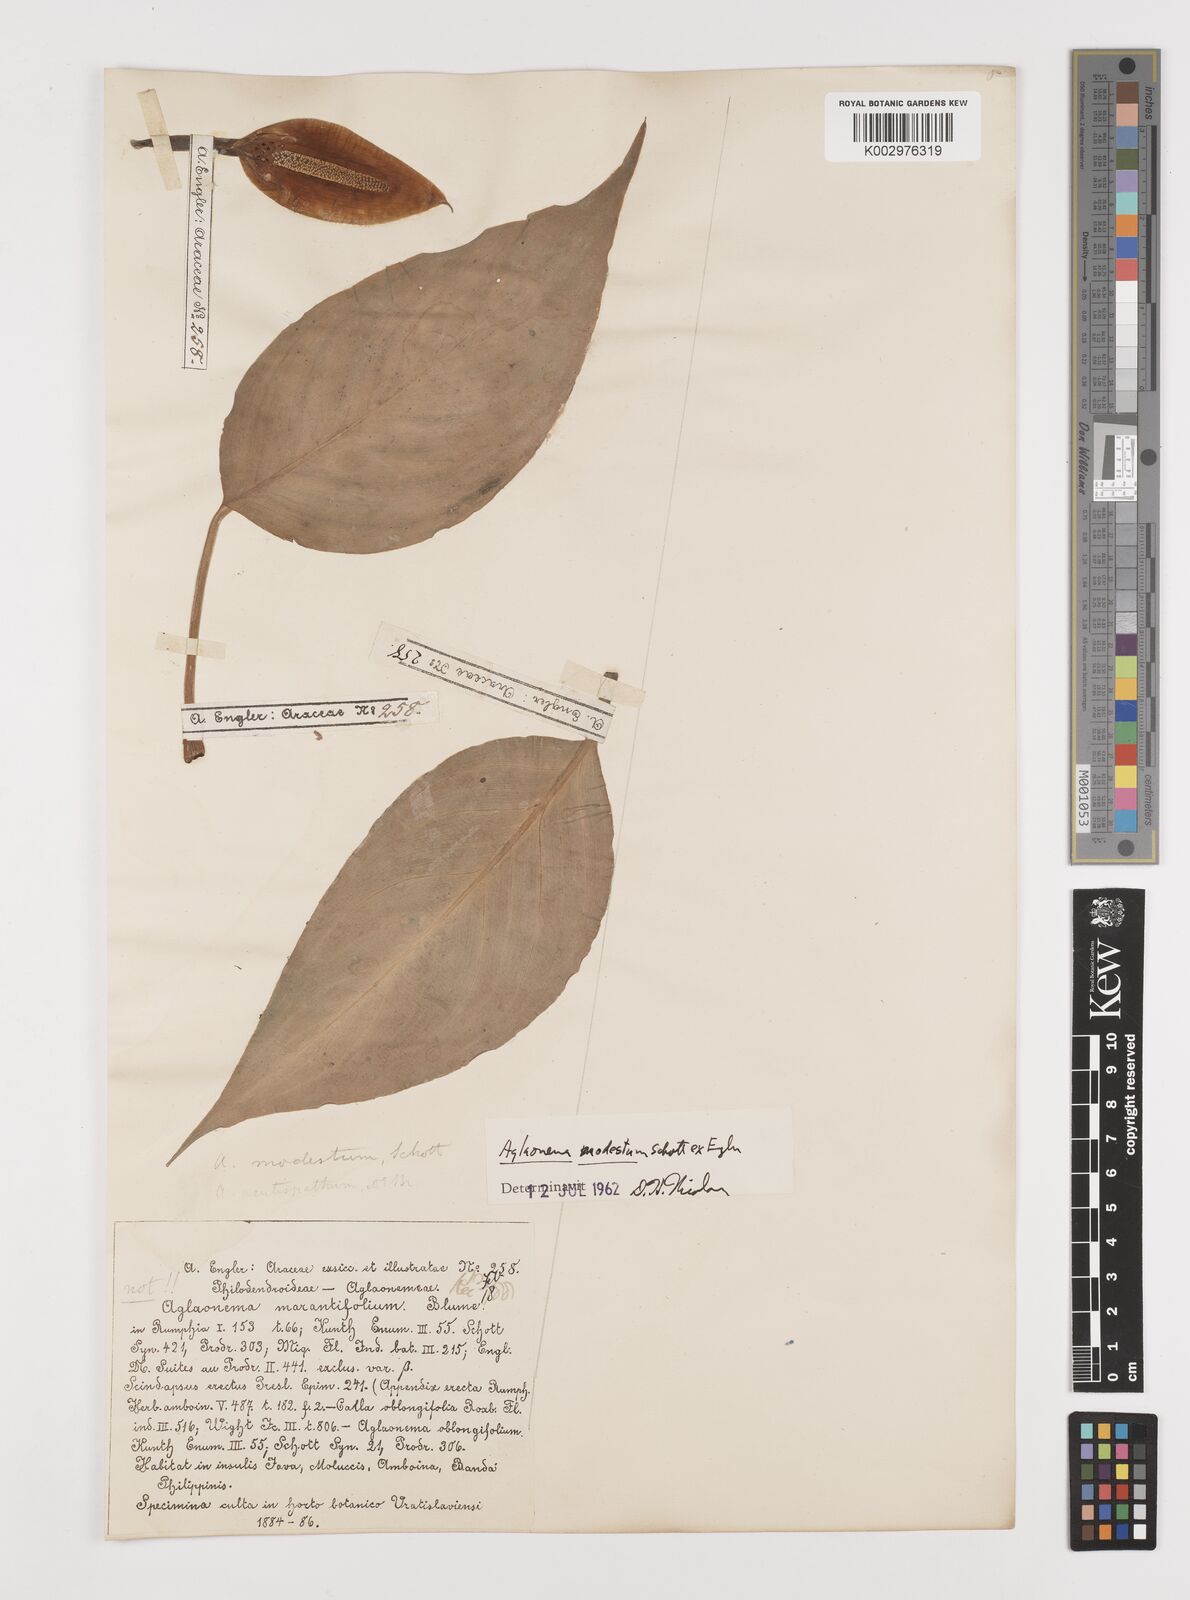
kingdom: Plantae
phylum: Tracheophyta
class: Liliopsida
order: Alismatales
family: Araceae
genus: Aglaonema
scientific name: Aglaonema modestum
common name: Chinese evergreen
